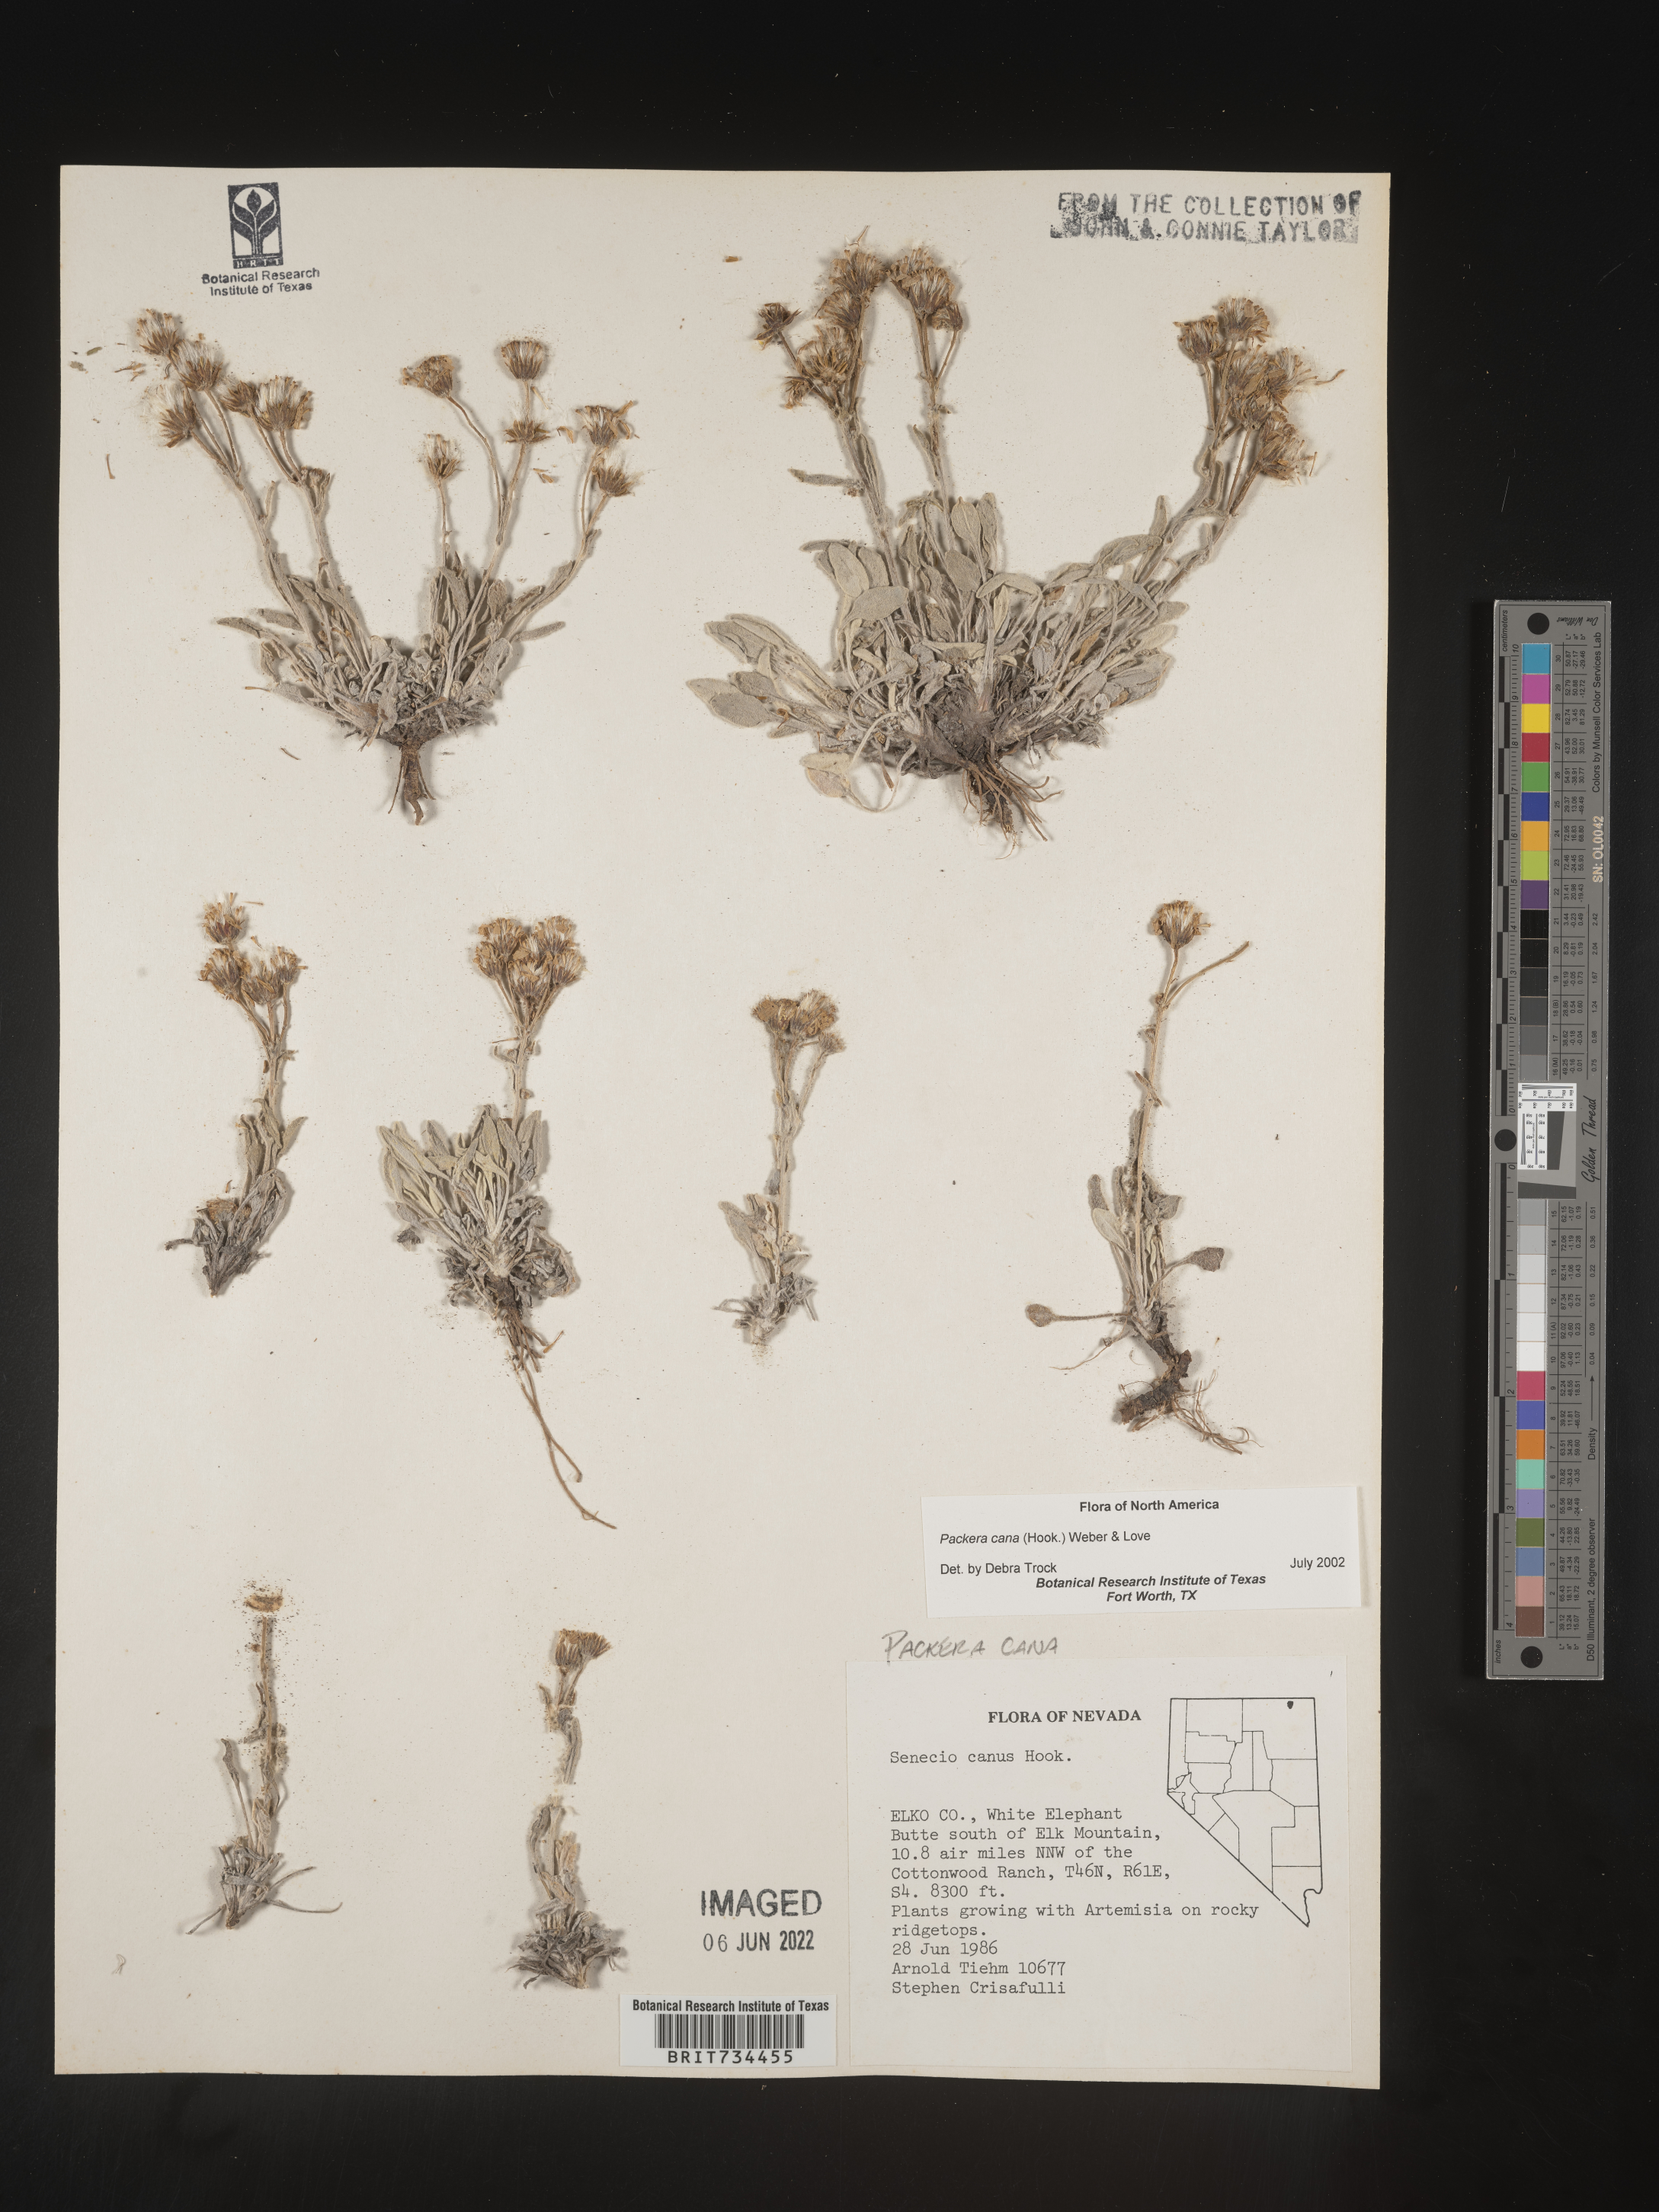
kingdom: Plantae
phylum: Tracheophyta
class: Magnoliopsida
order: Asterales
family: Asteraceae
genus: Packera
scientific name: Packera cana
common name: Woolly groundsel
